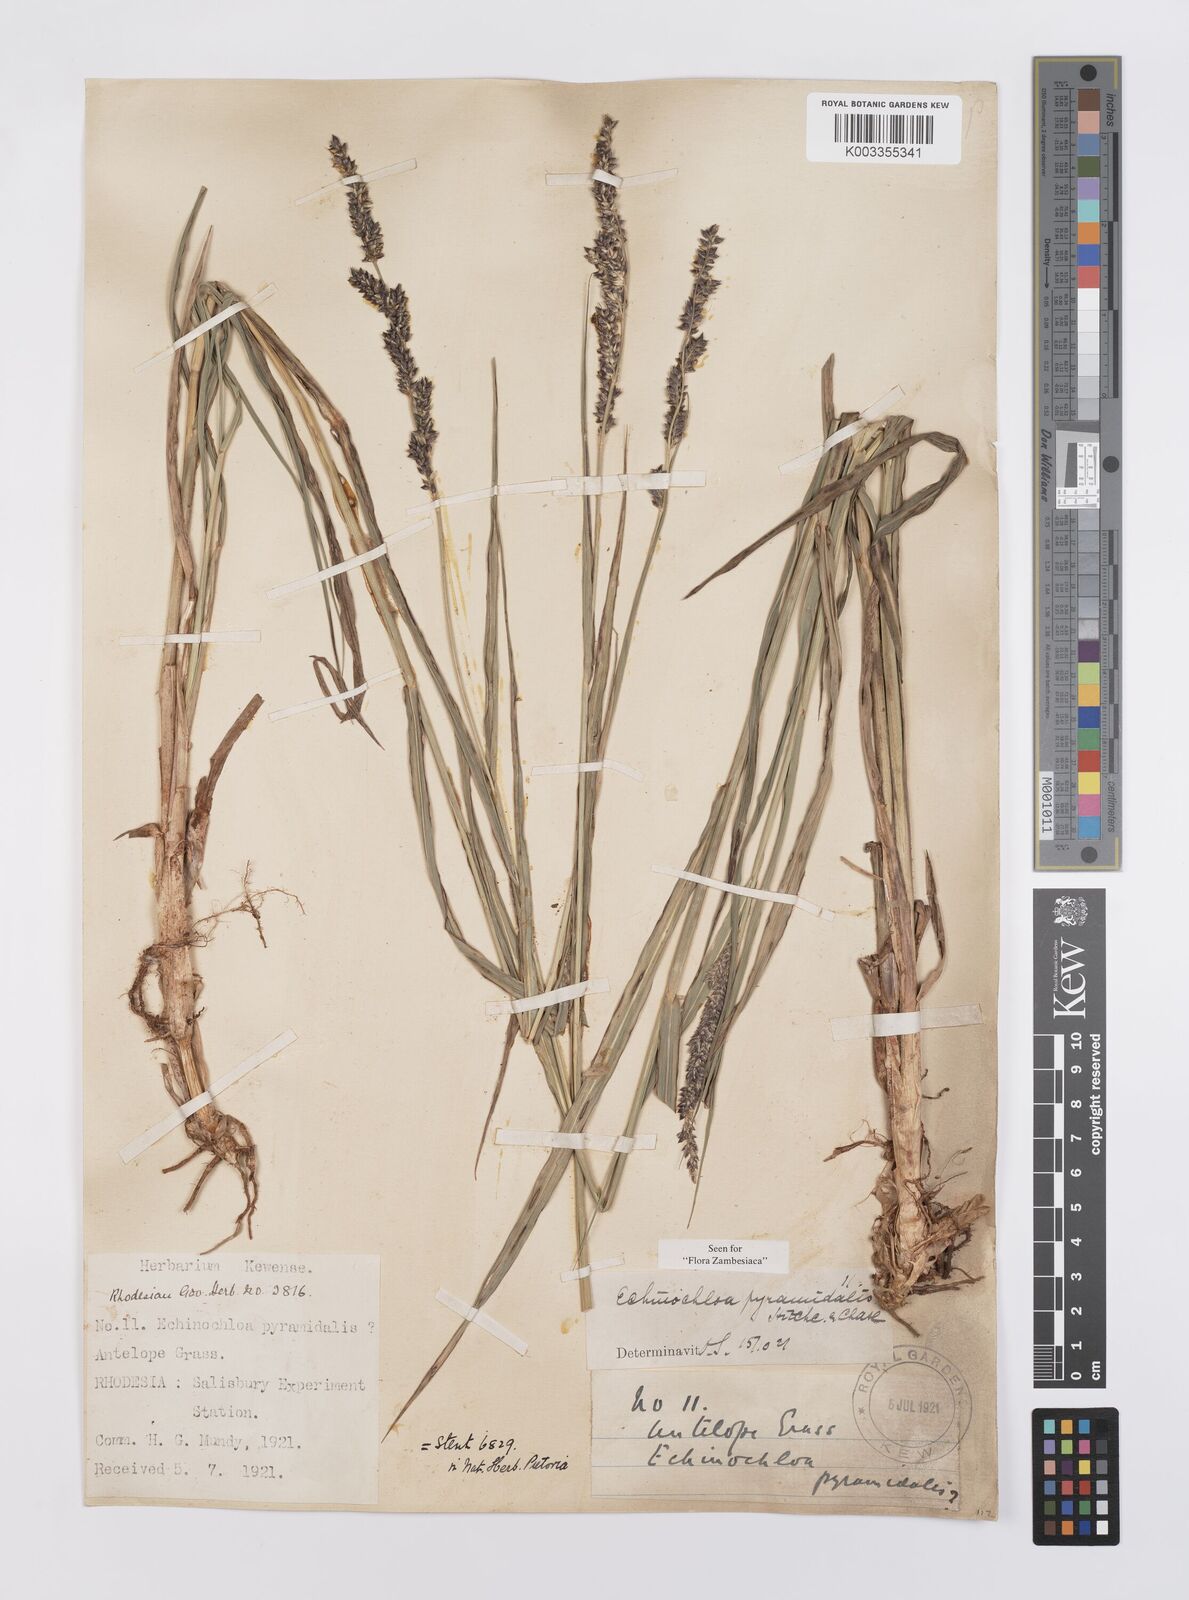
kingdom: Plantae
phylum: Tracheophyta
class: Liliopsida
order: Poales
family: Poaceae
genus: Echinochloa
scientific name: Echinochloa pyramidalis
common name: Antelope grass
